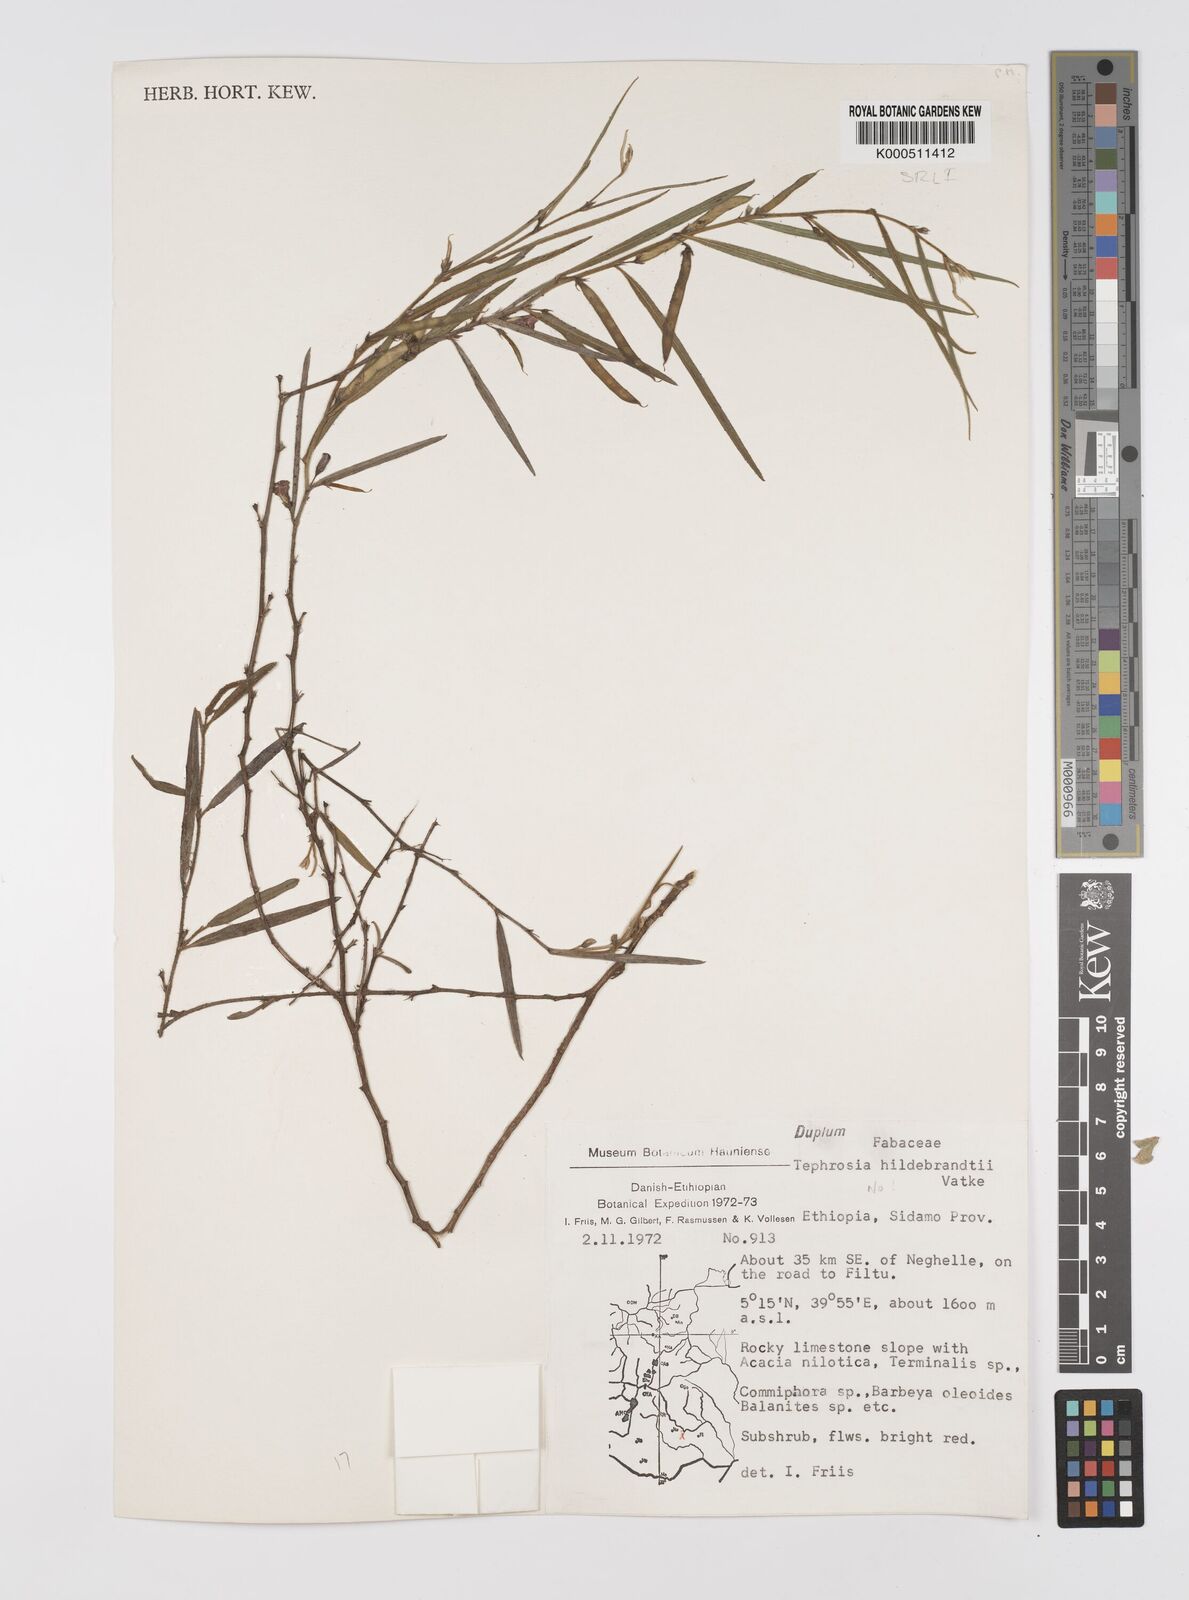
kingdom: Plantae
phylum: Tracheophyta
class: Magnoliopsida
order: Fabales
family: Fabaceae
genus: Tephrosia
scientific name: Tephrosia heterophylla
